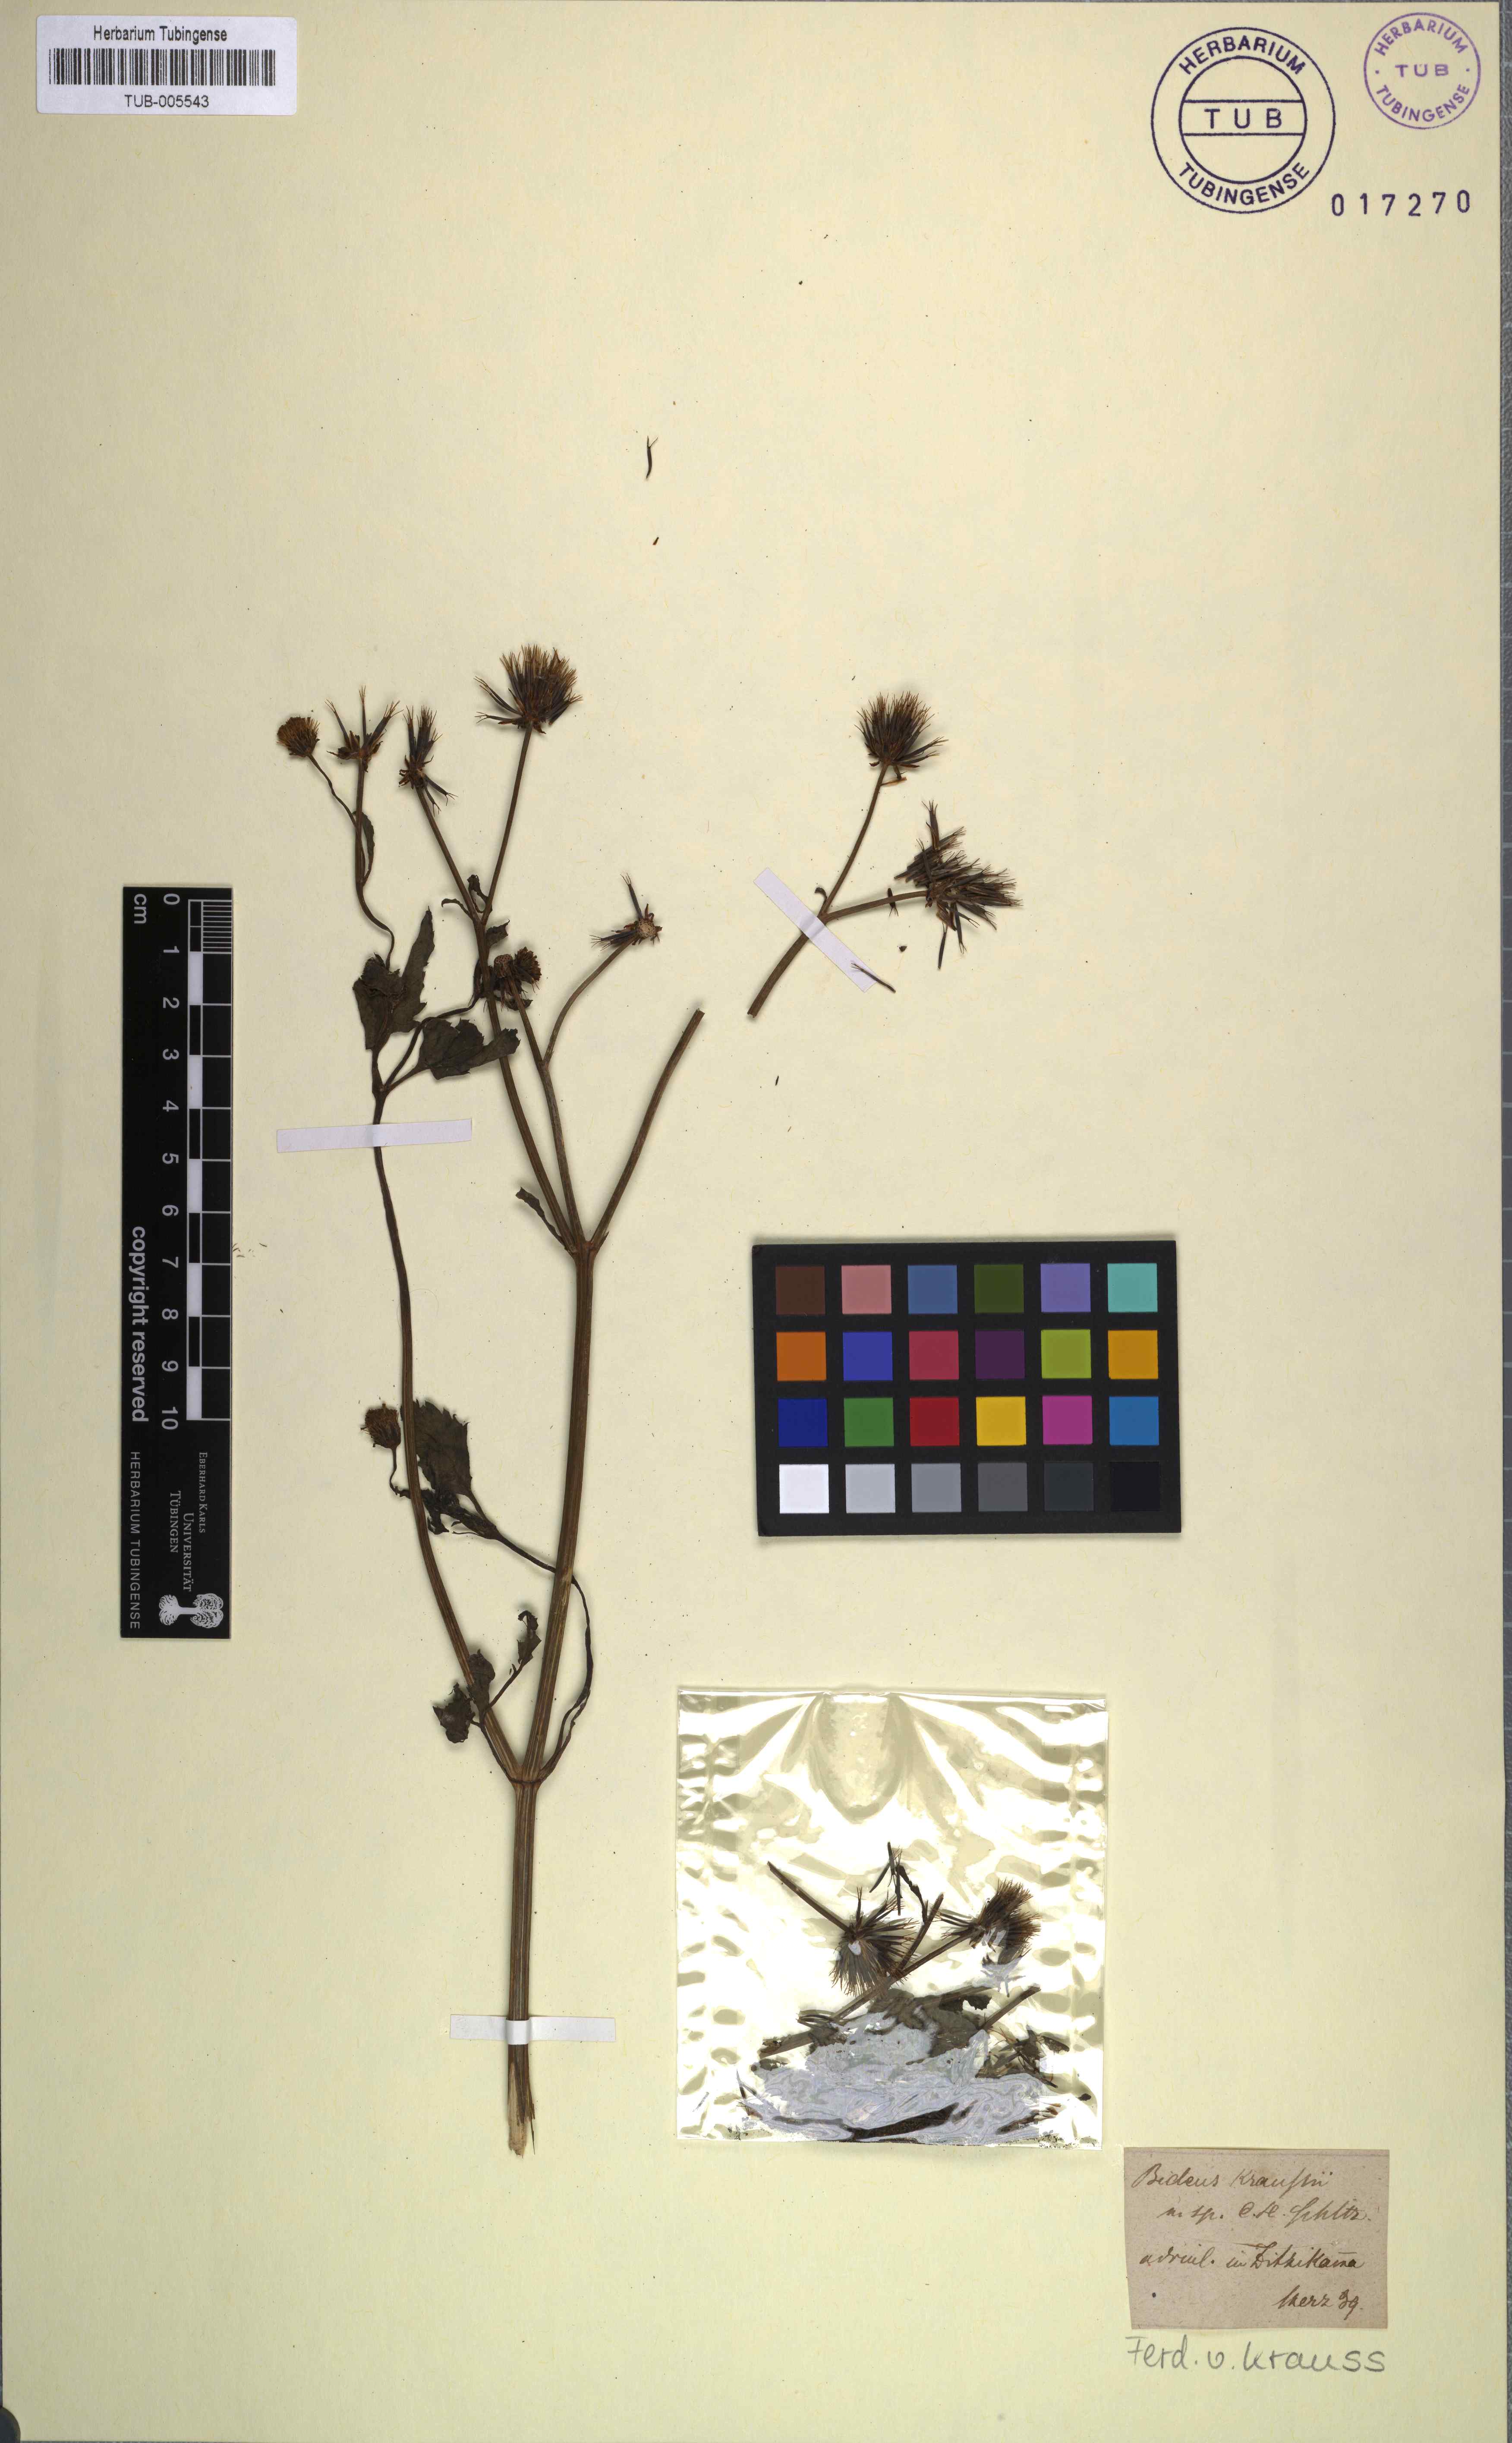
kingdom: Plantae
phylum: Tracheophyta
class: Magnoliopsida
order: Asterales
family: Asteraceae
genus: Bidens
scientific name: Bidens
